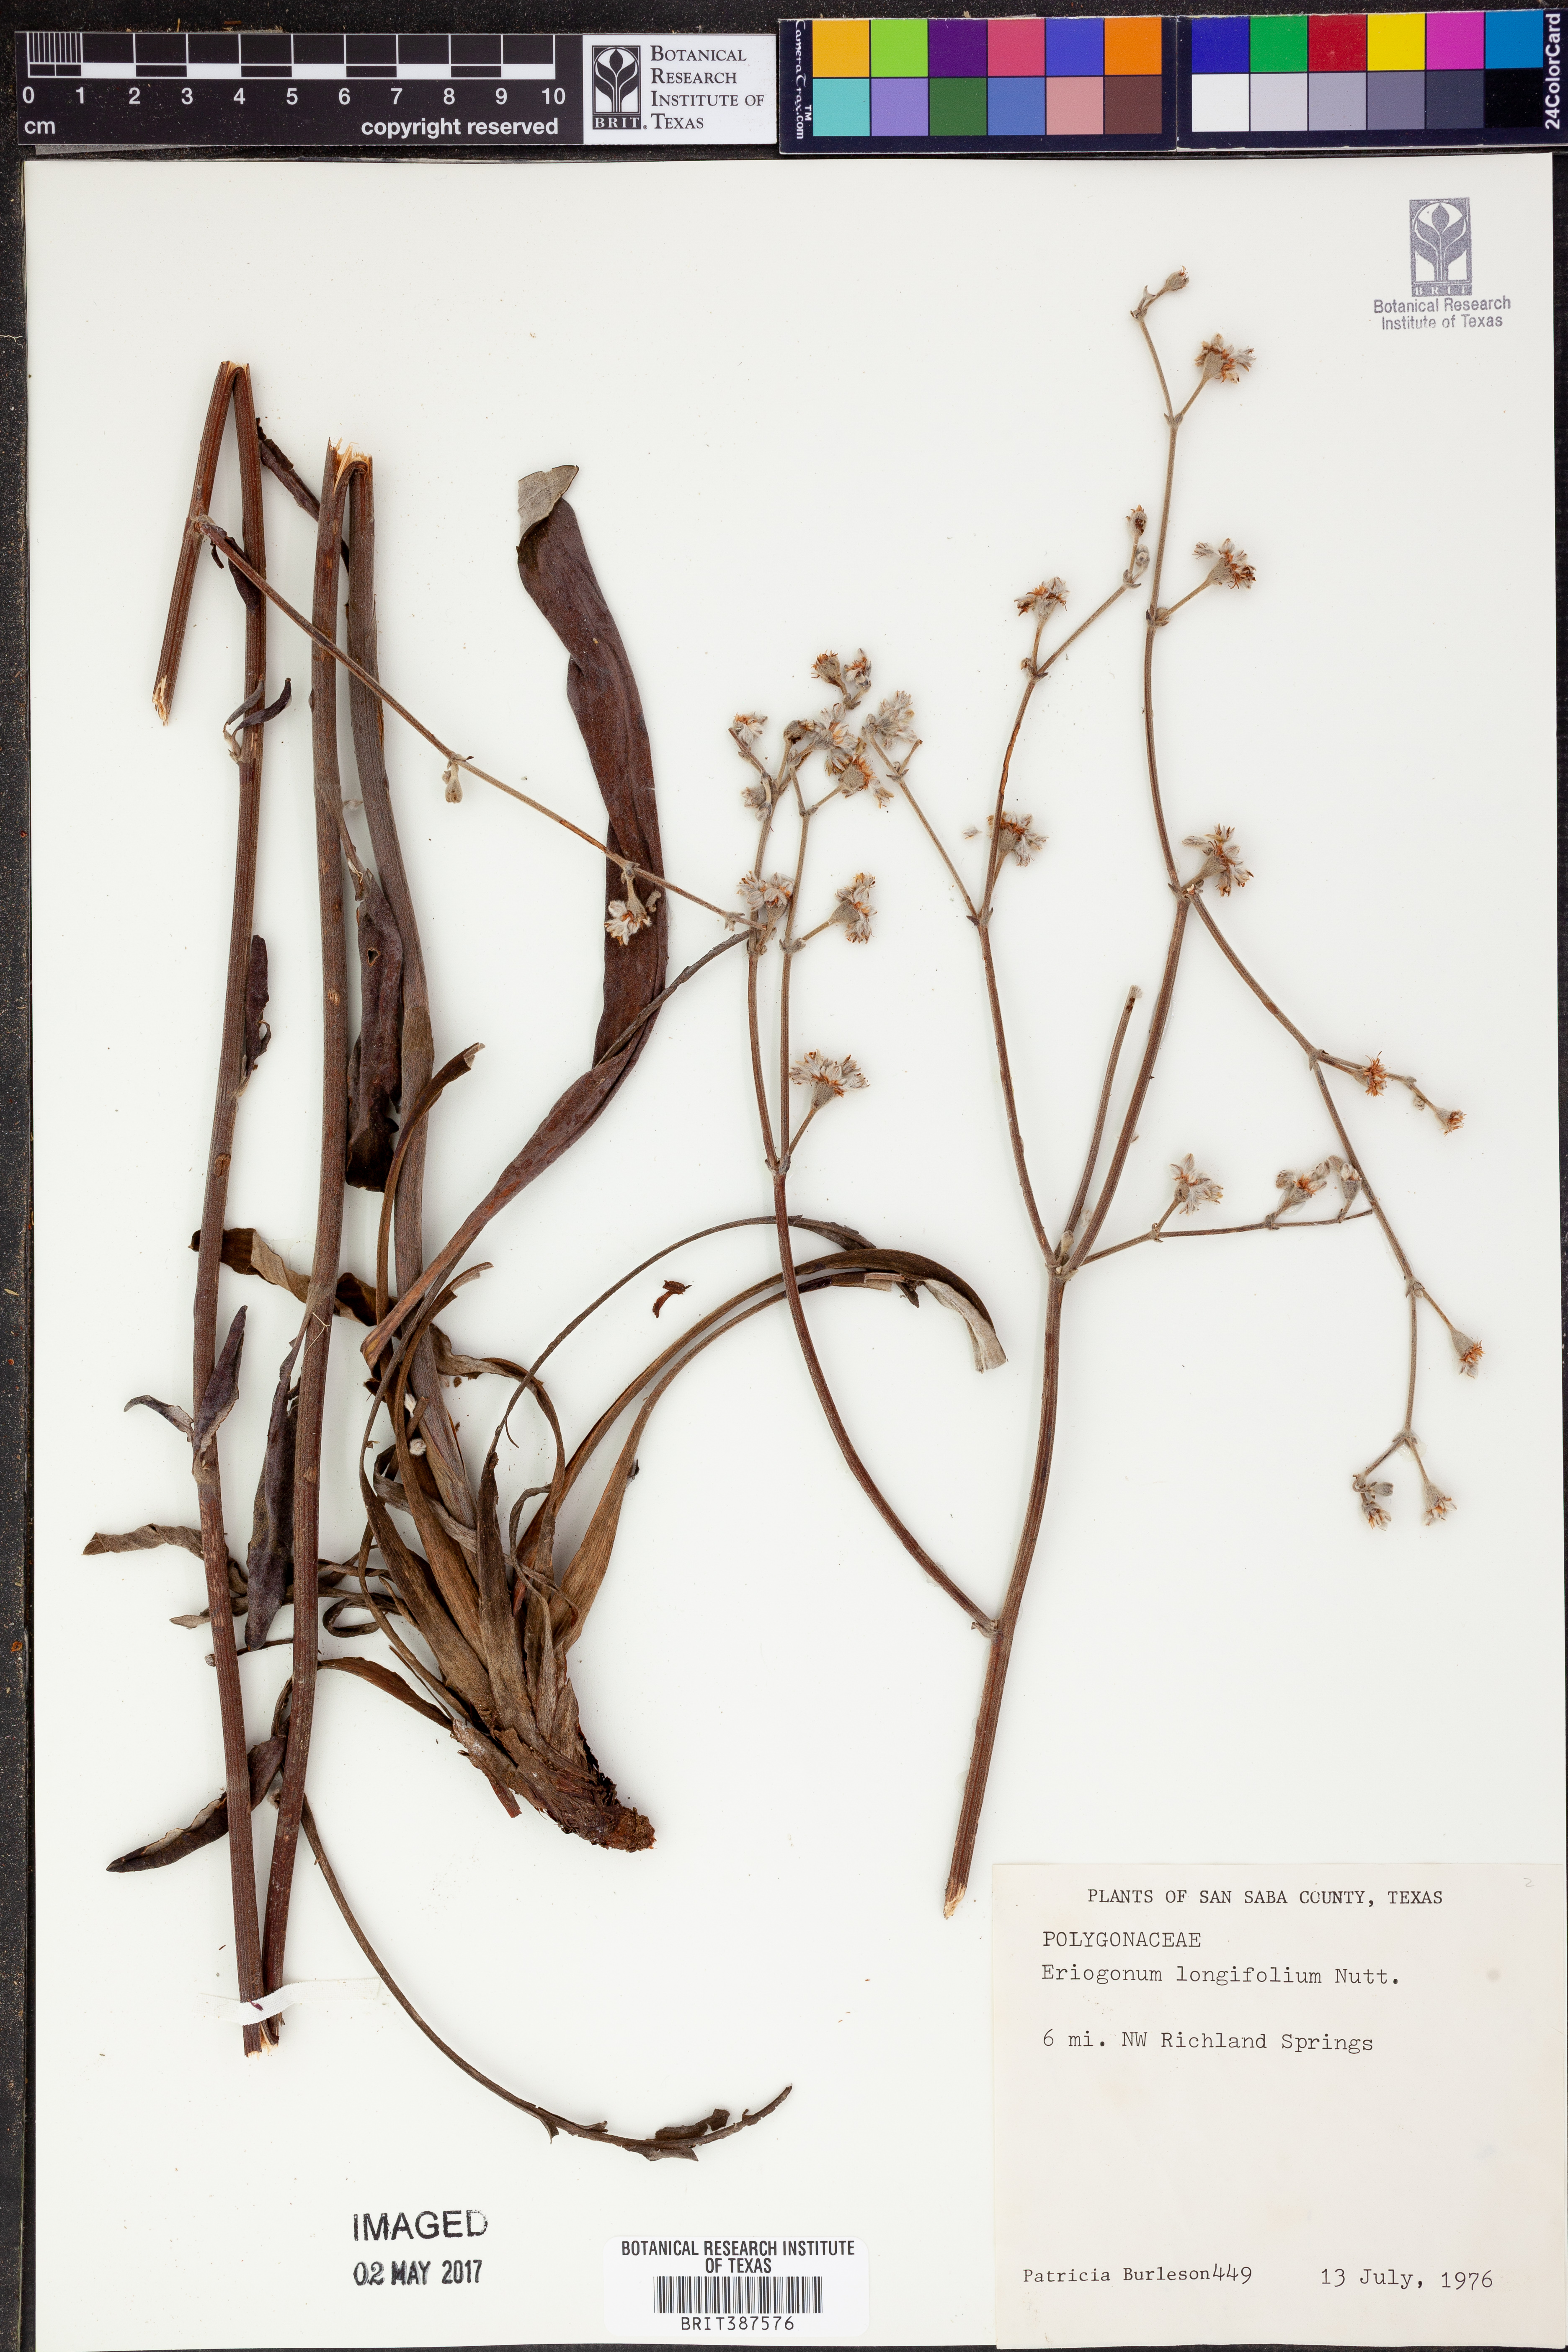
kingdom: Plantae
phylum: Tracheophyta
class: Magnoliopsida
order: Caryophyllales
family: Polygonaceae
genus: Eriogonum
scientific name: Eriogonum longifolium
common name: Longleaf wild buckwheat
